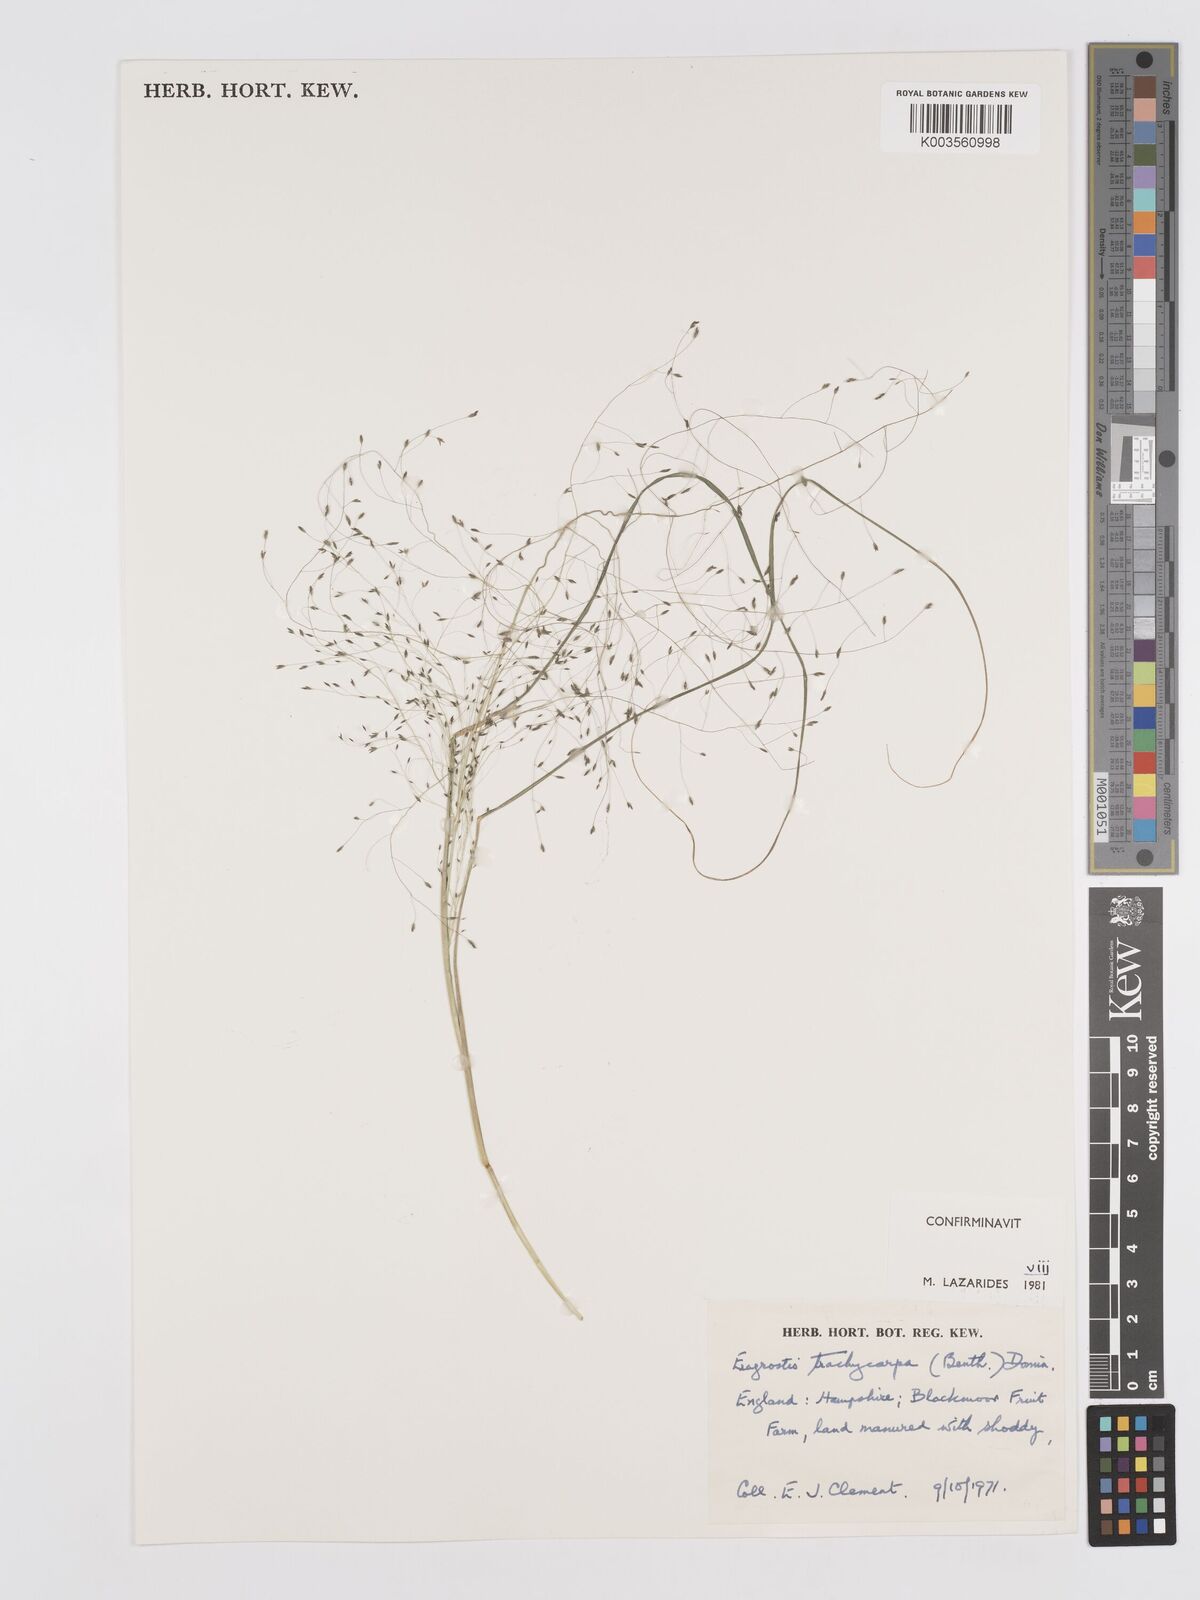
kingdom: Plantae
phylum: Tracheophyta
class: Liliopsida
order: Poales
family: Poaceae
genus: Eragrostis
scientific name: Eragrostis trachycarpa
